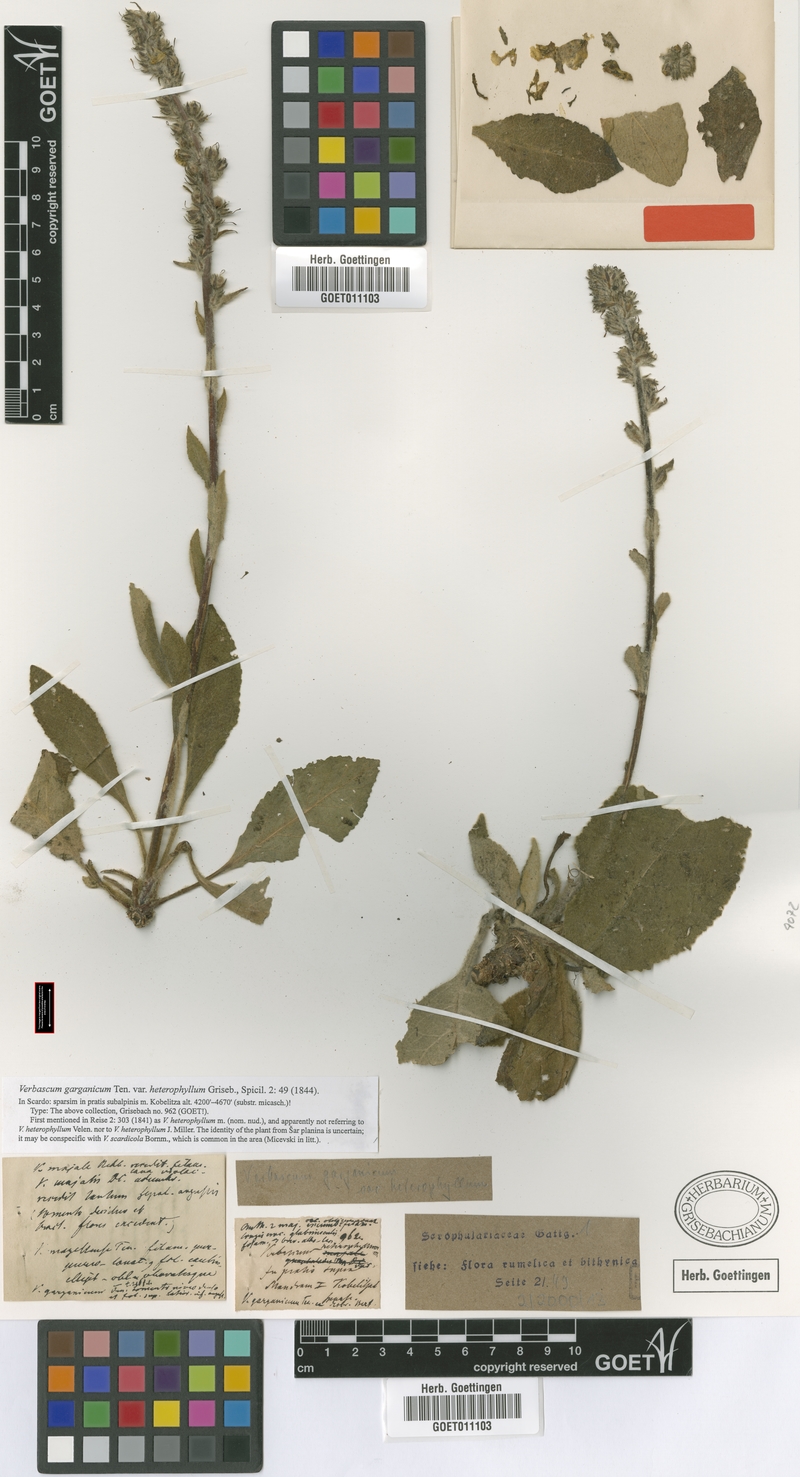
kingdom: Plantae
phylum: Tracheophyta
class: Magnoliopsida
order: Lamiales
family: Scrophulariaceae
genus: Verbascum
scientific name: Verbascum niveum
